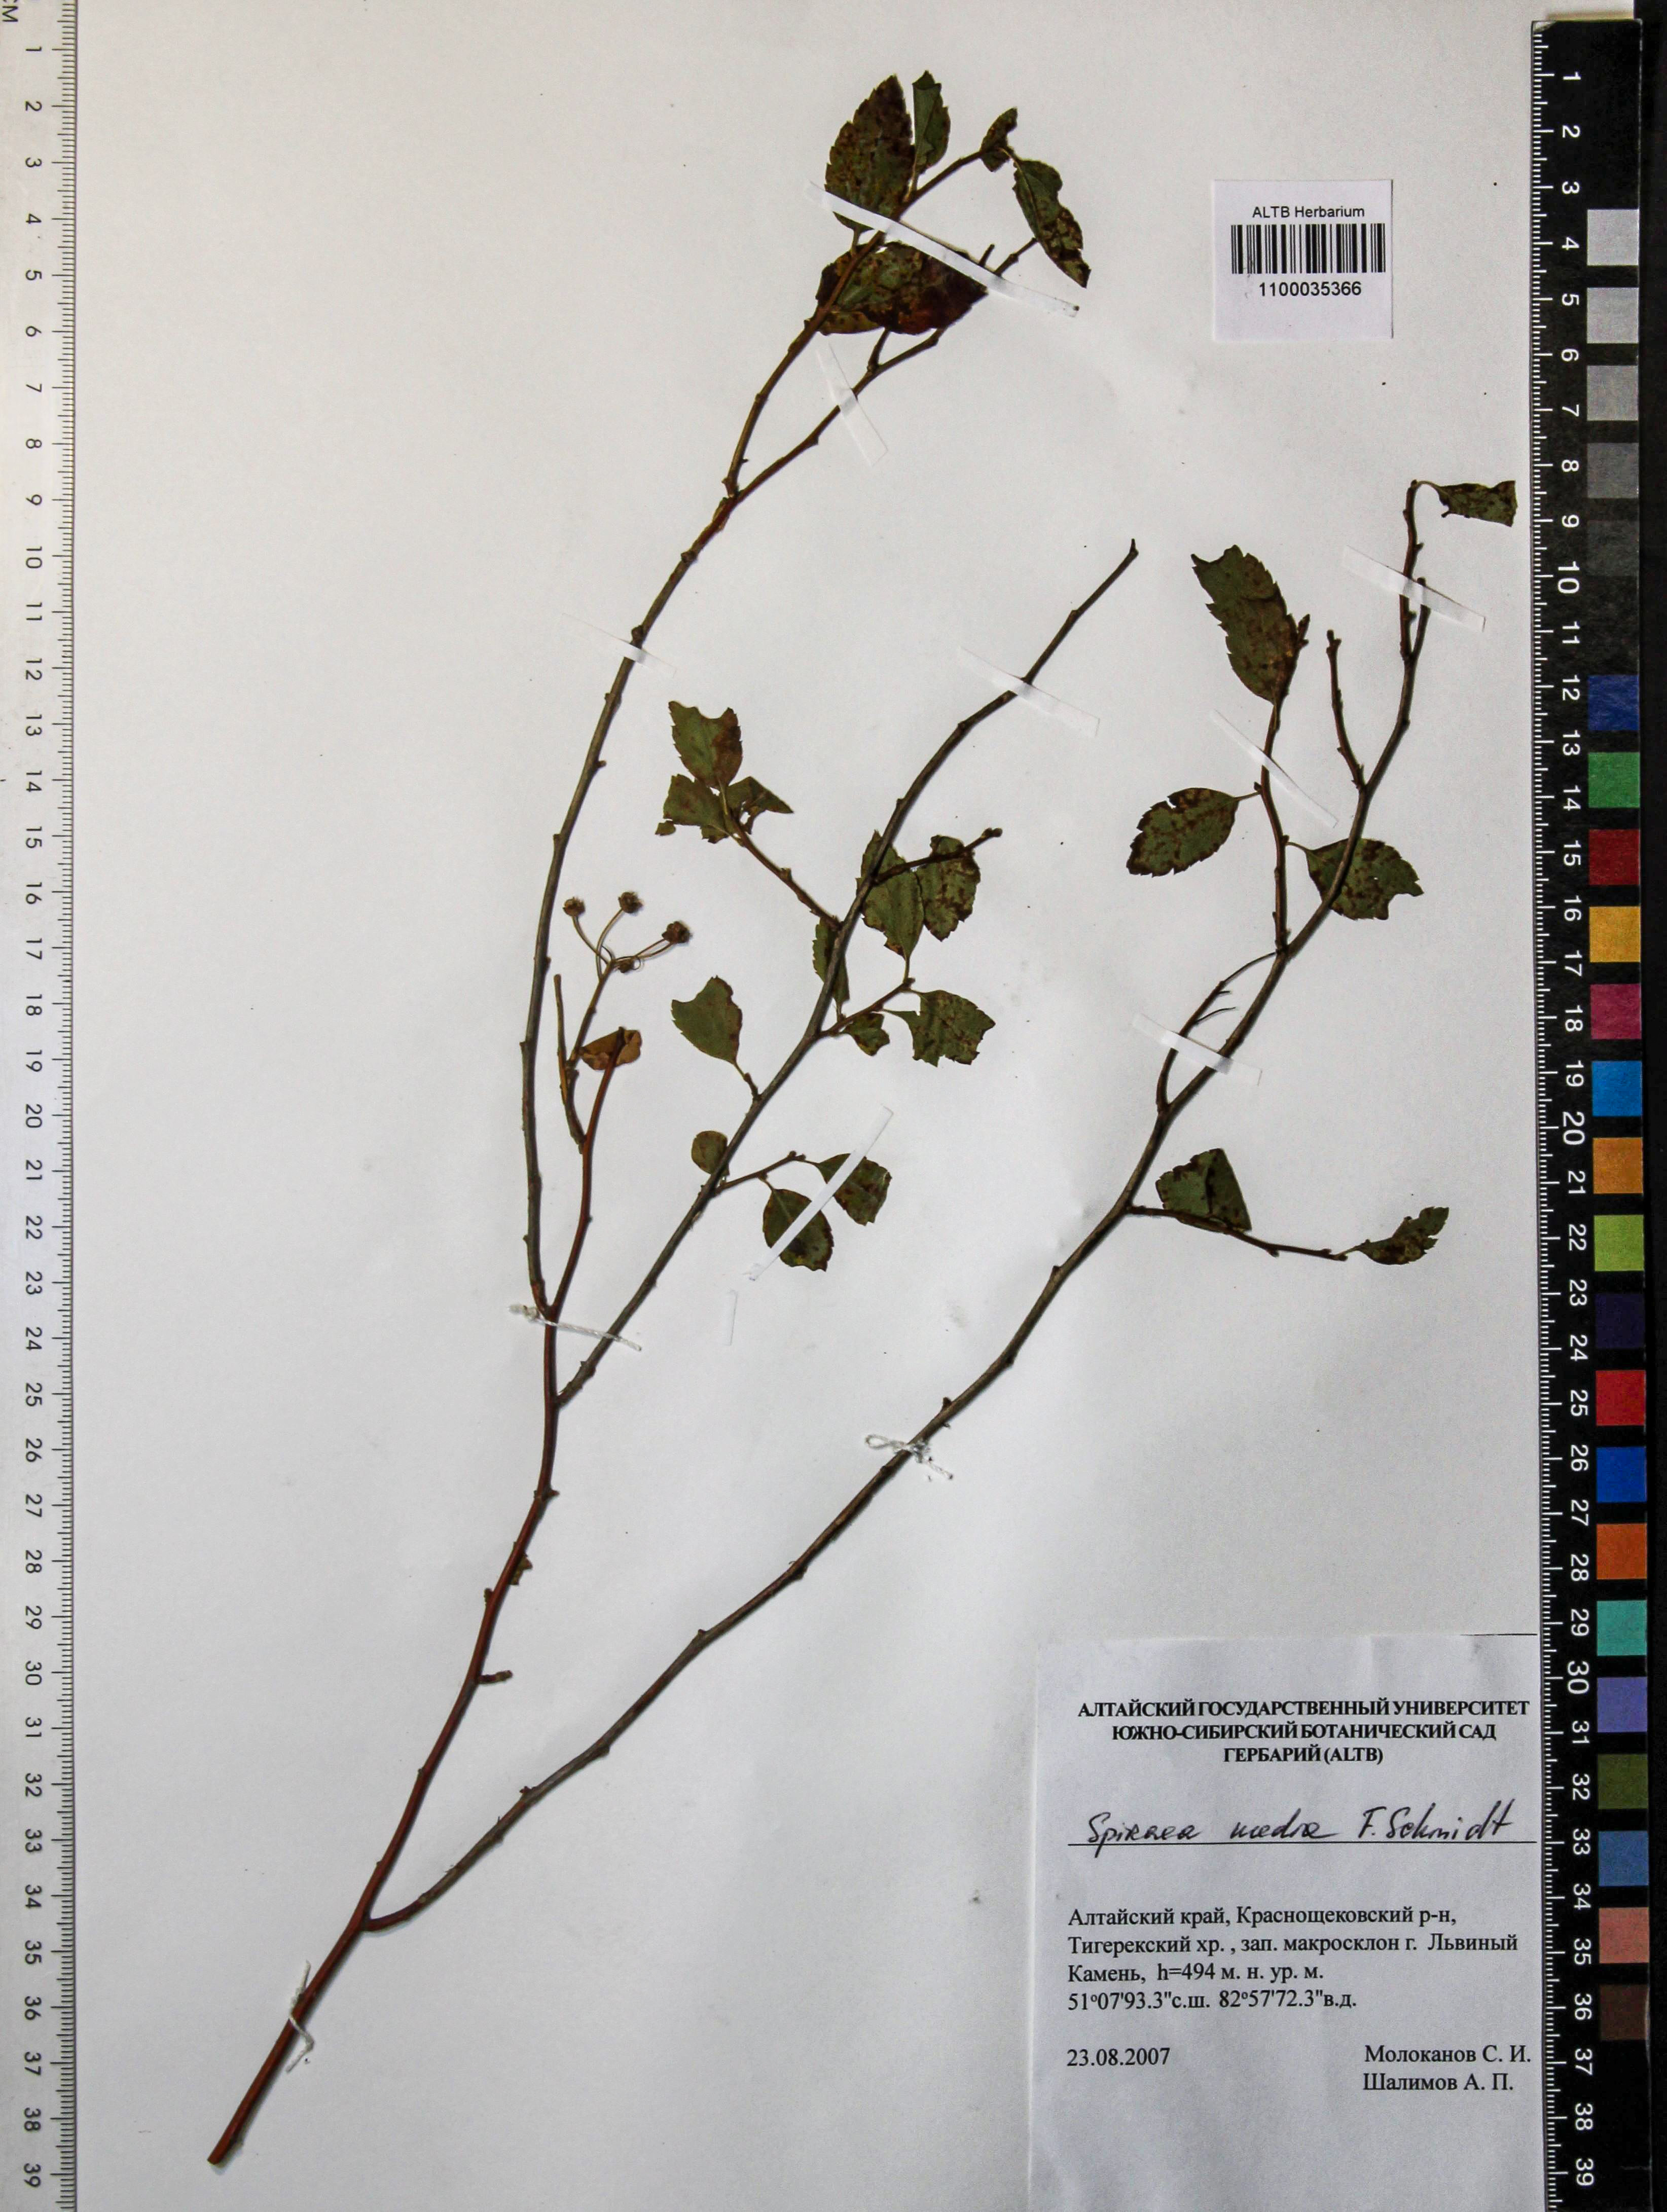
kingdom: Plantae
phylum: Tracheophyta
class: Magnoliopsida
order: Rosales
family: Rosaceae
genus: Spiraea
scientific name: Spiraea media
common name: Russian spiraea
